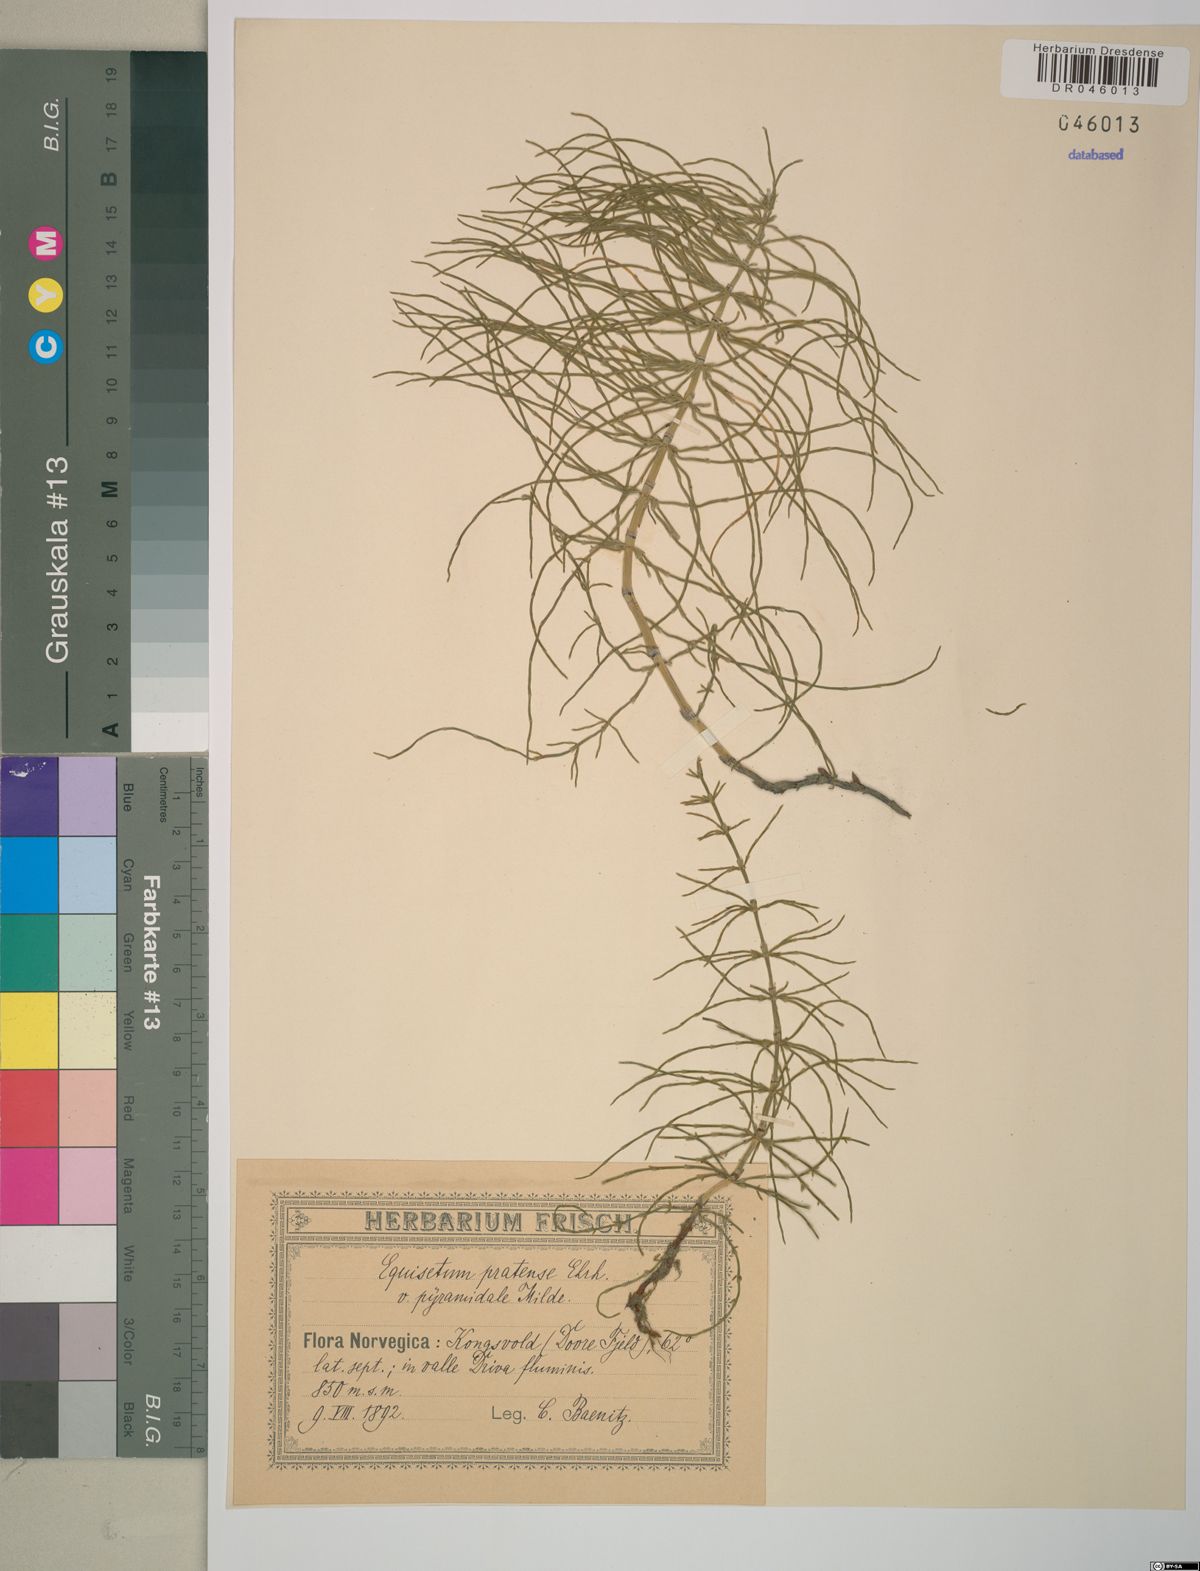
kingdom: Plantae
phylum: Tracheophyta
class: Polypodiopsida
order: Equisetales
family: Equisetaceae
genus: Equisetum
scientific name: Equisetum pratense
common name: Meadow horsetail
